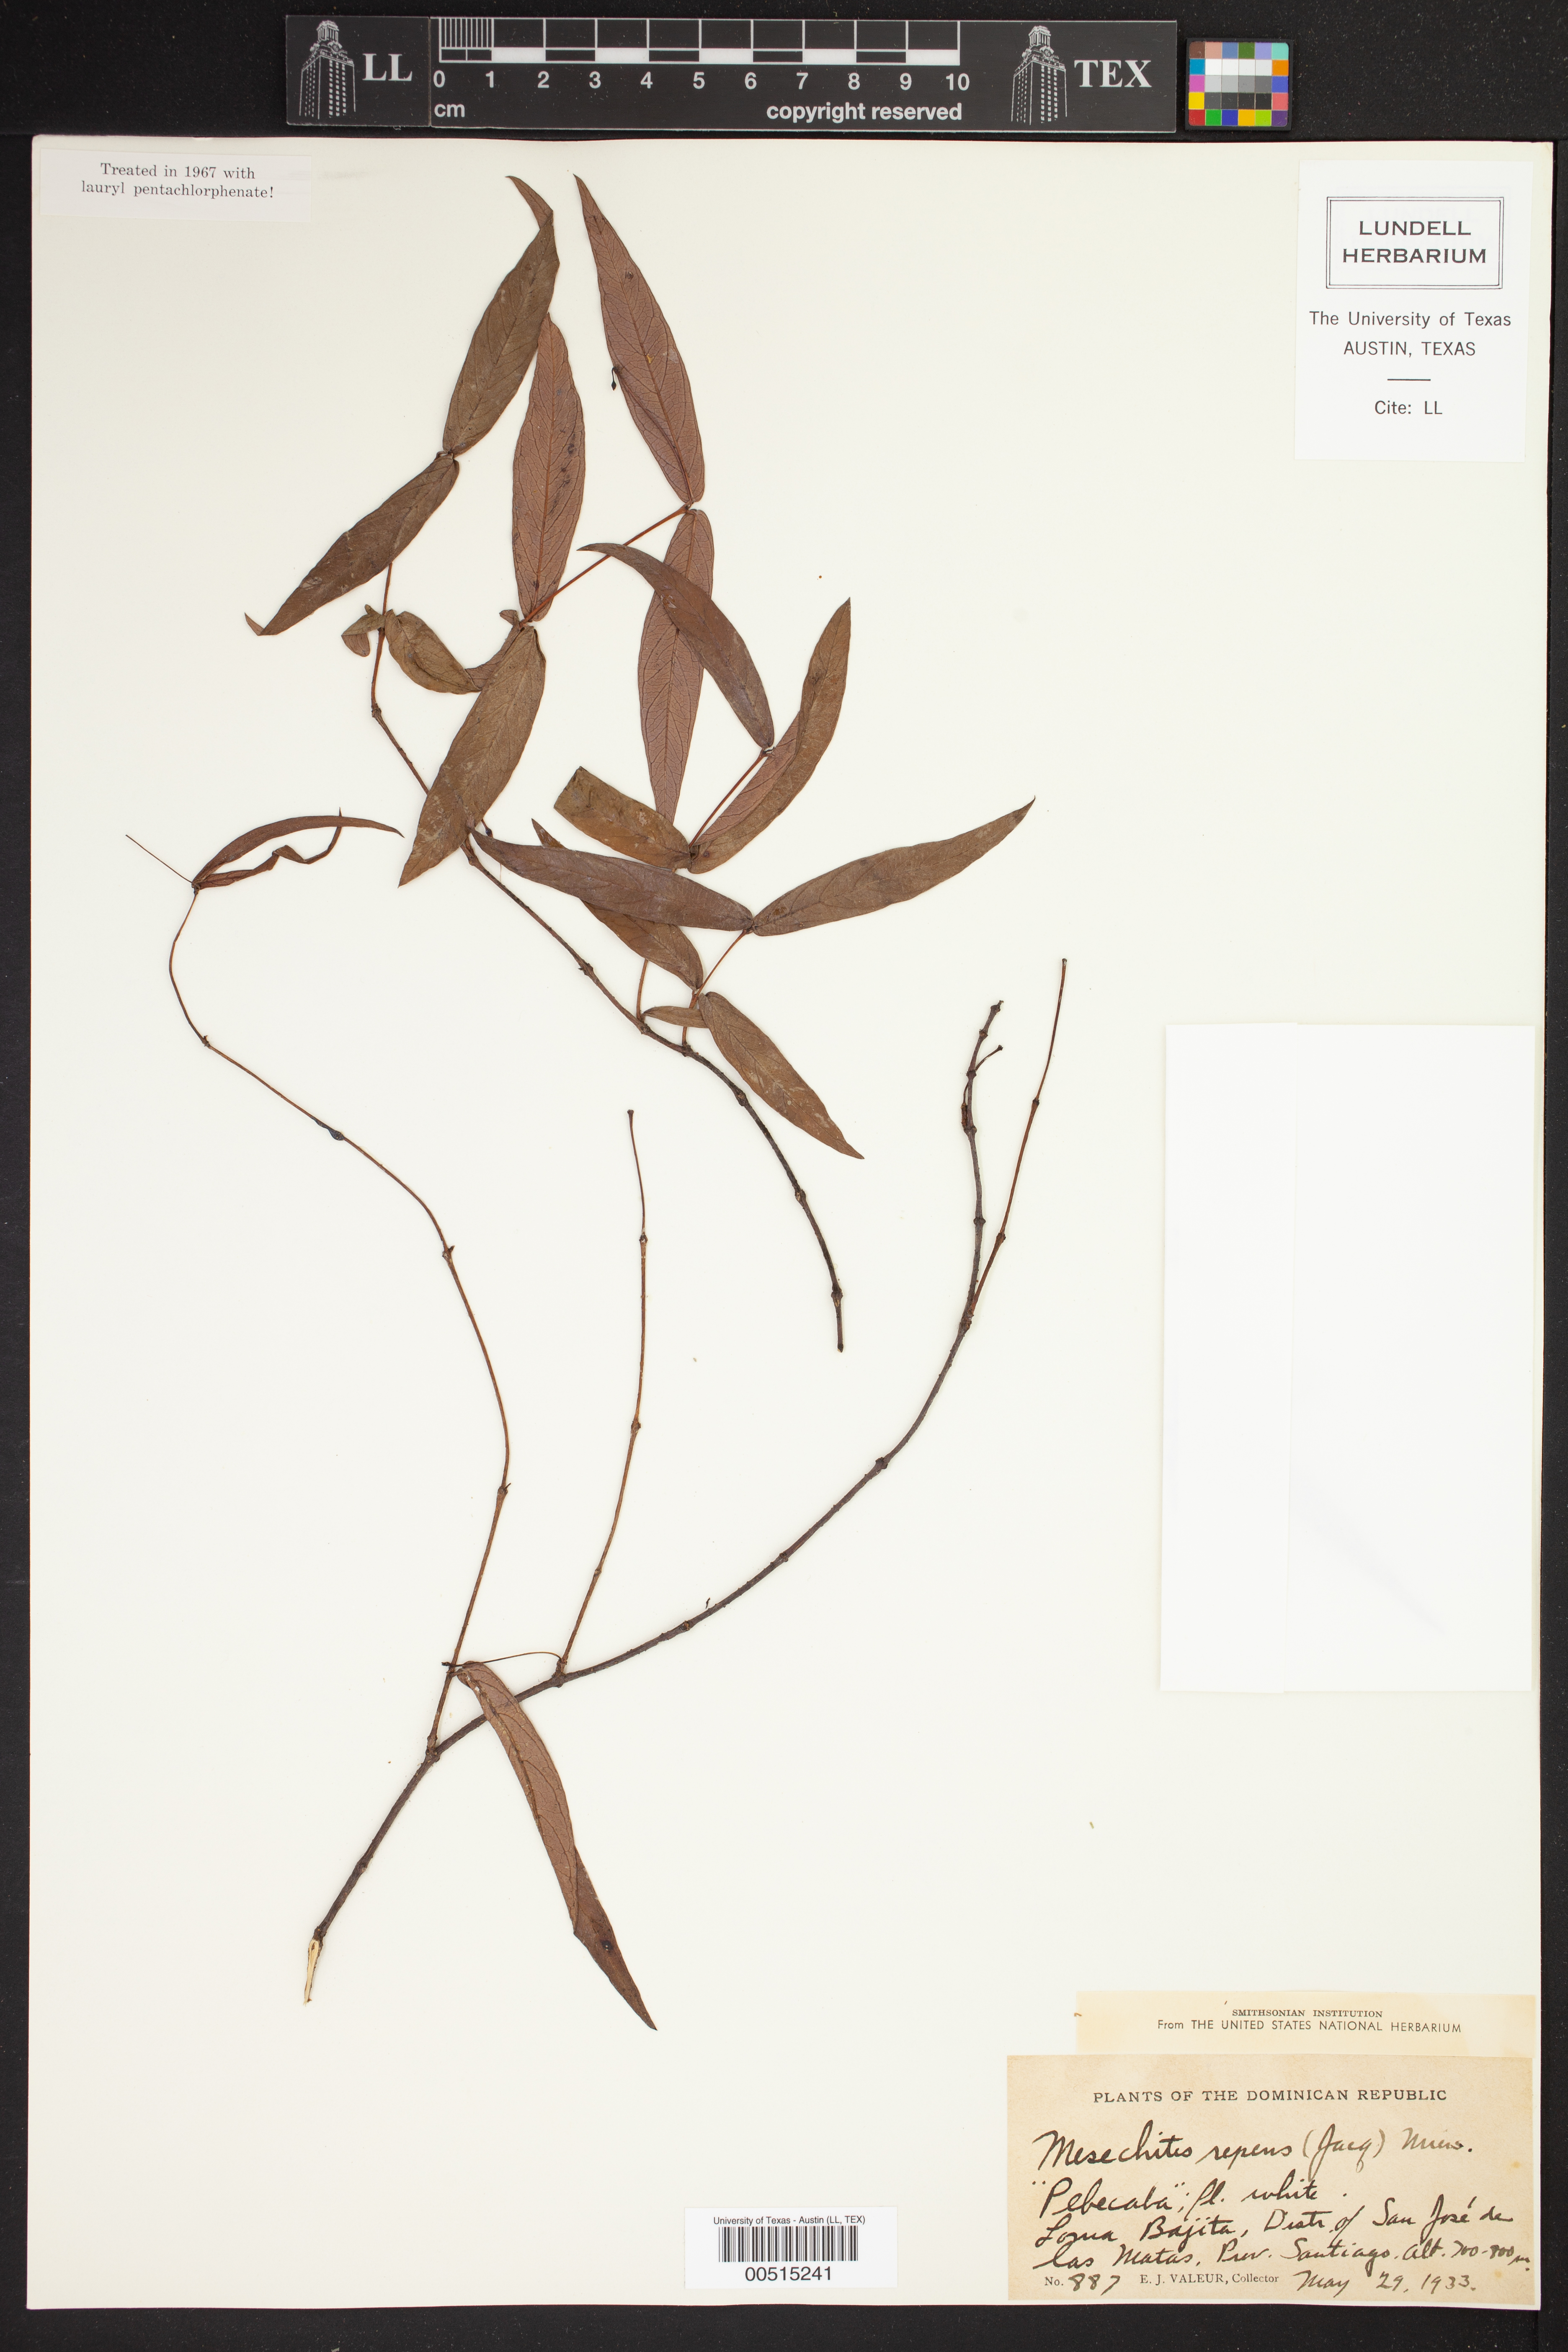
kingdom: Plantae
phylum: Tracheophyta
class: Magnoliopsida
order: Gentianales
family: Apocynaceae
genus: Mesechites
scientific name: Mesechites repens
